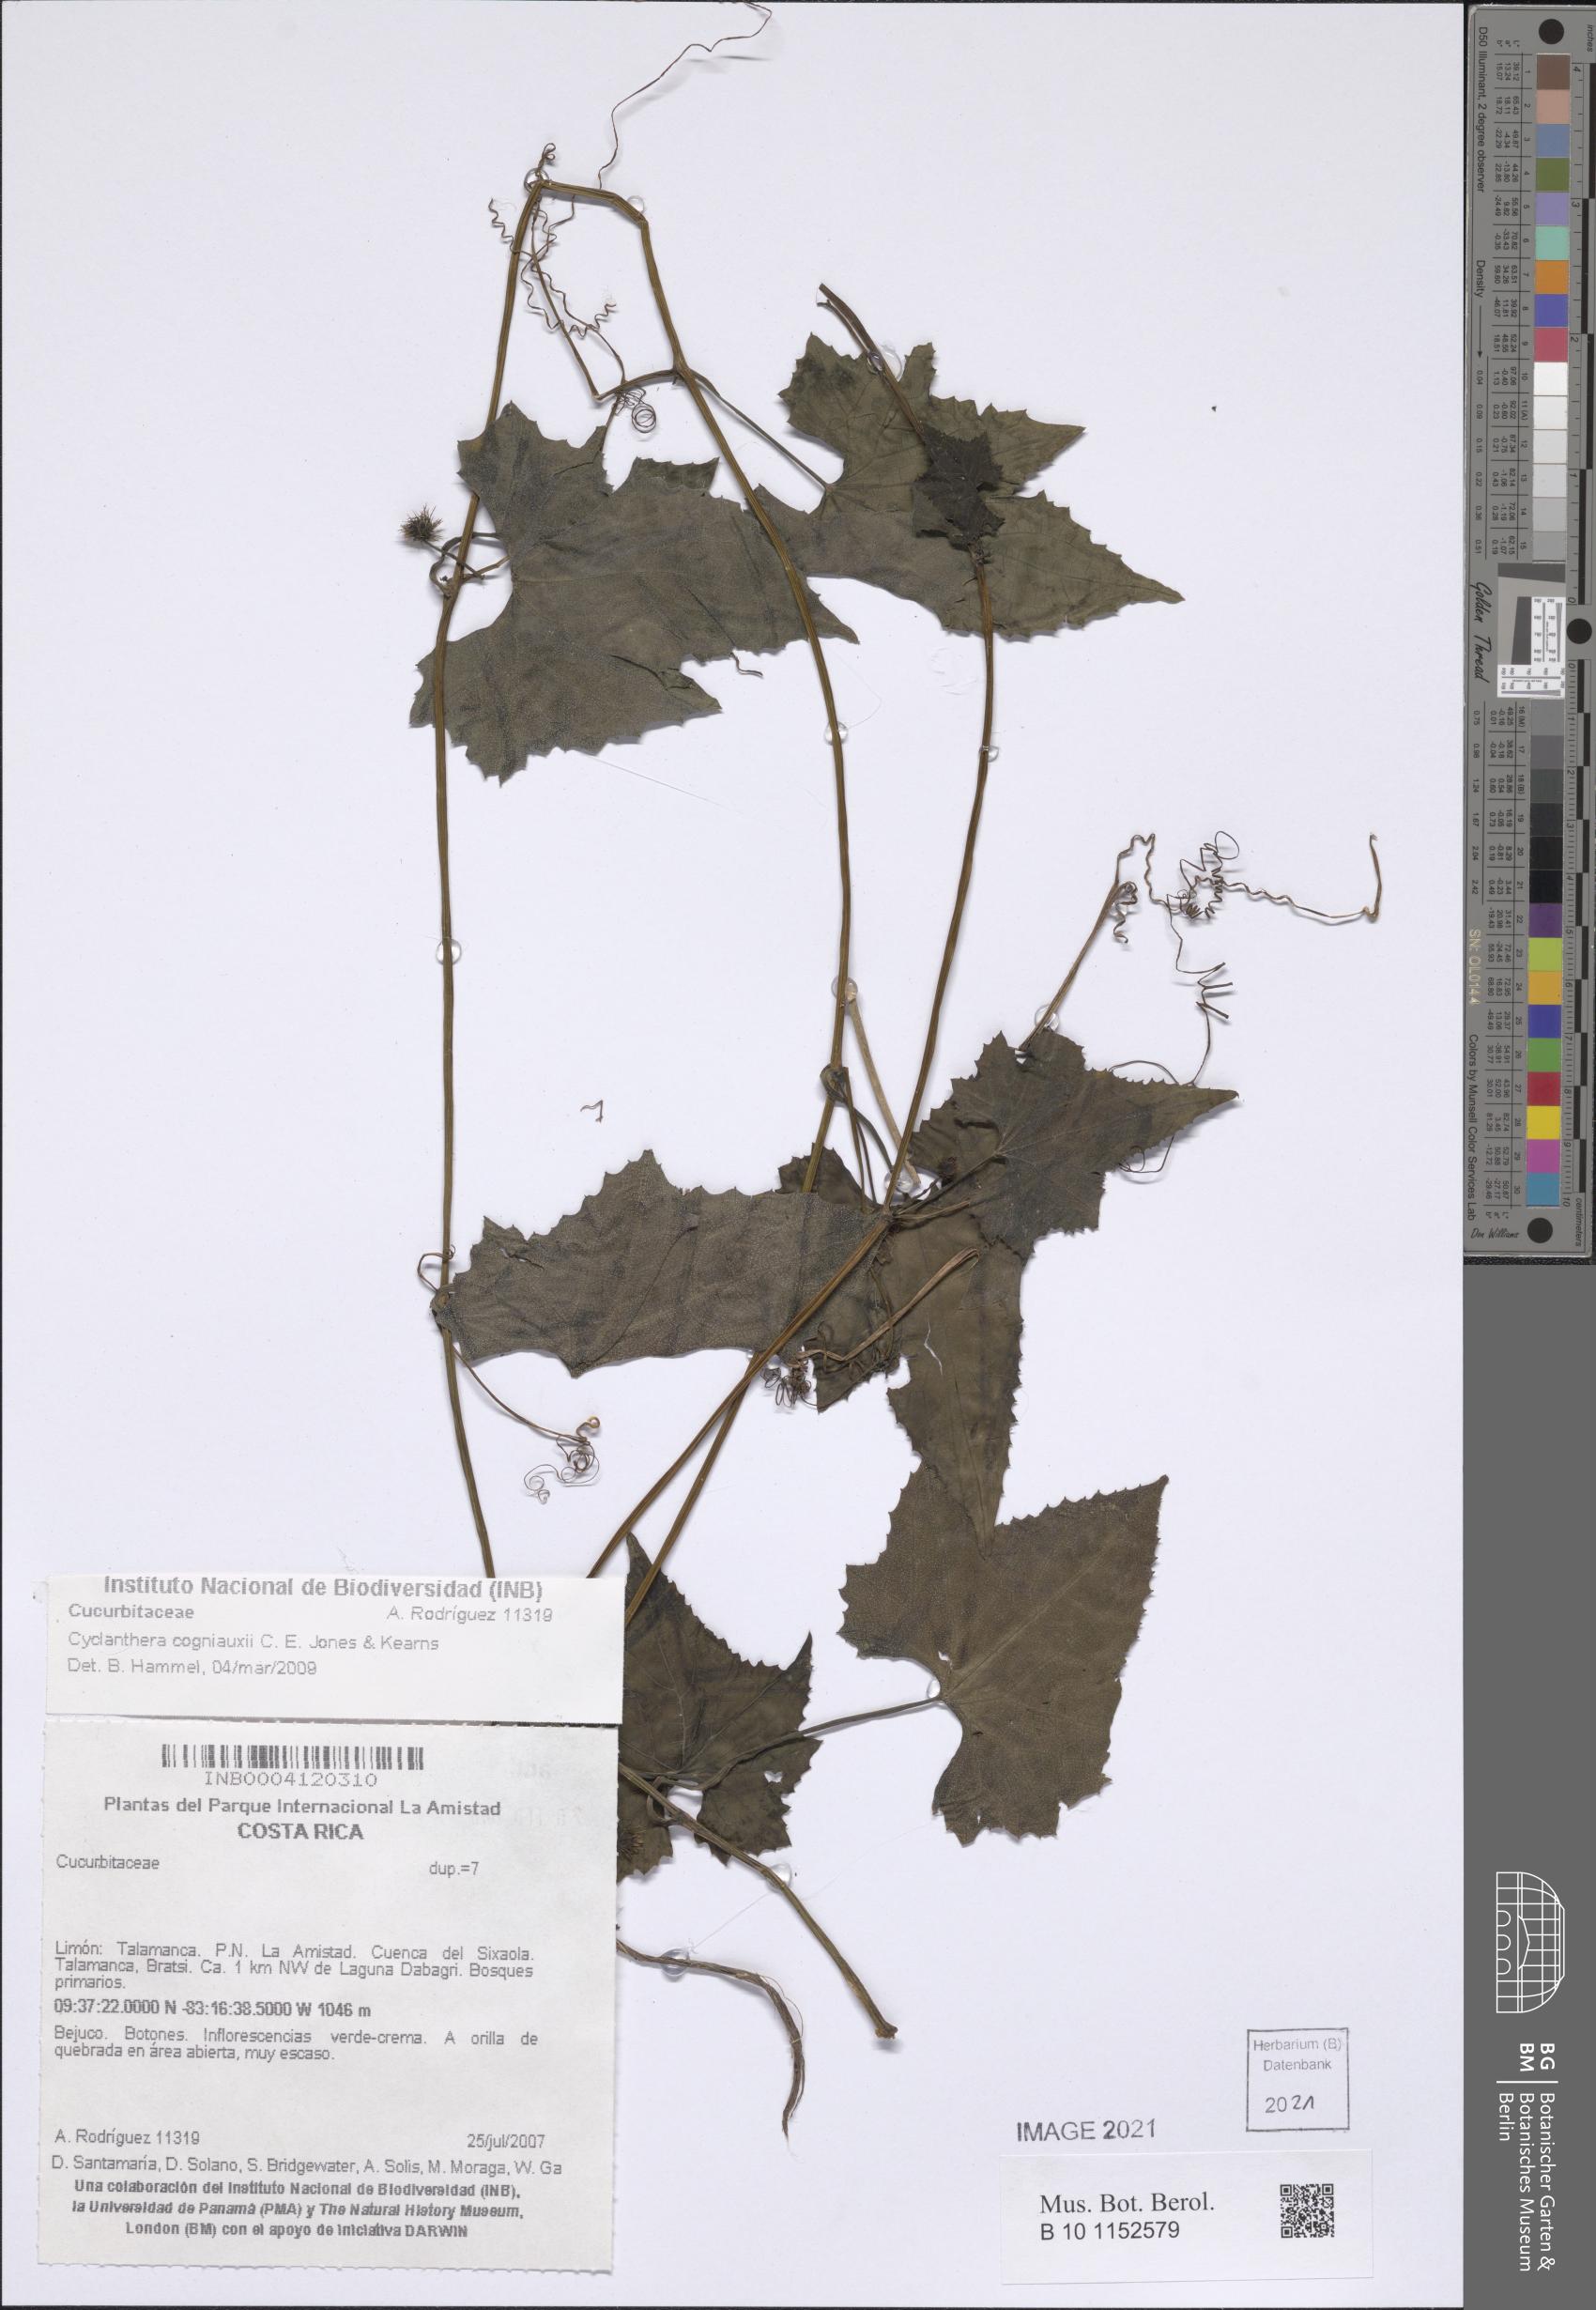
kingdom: Plantae
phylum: Tracheophyta
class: Magnoliopsida
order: Cucurbitales
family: Cucurbitaceae
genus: Cyclanthera
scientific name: Cyclanthera cogniauxii
